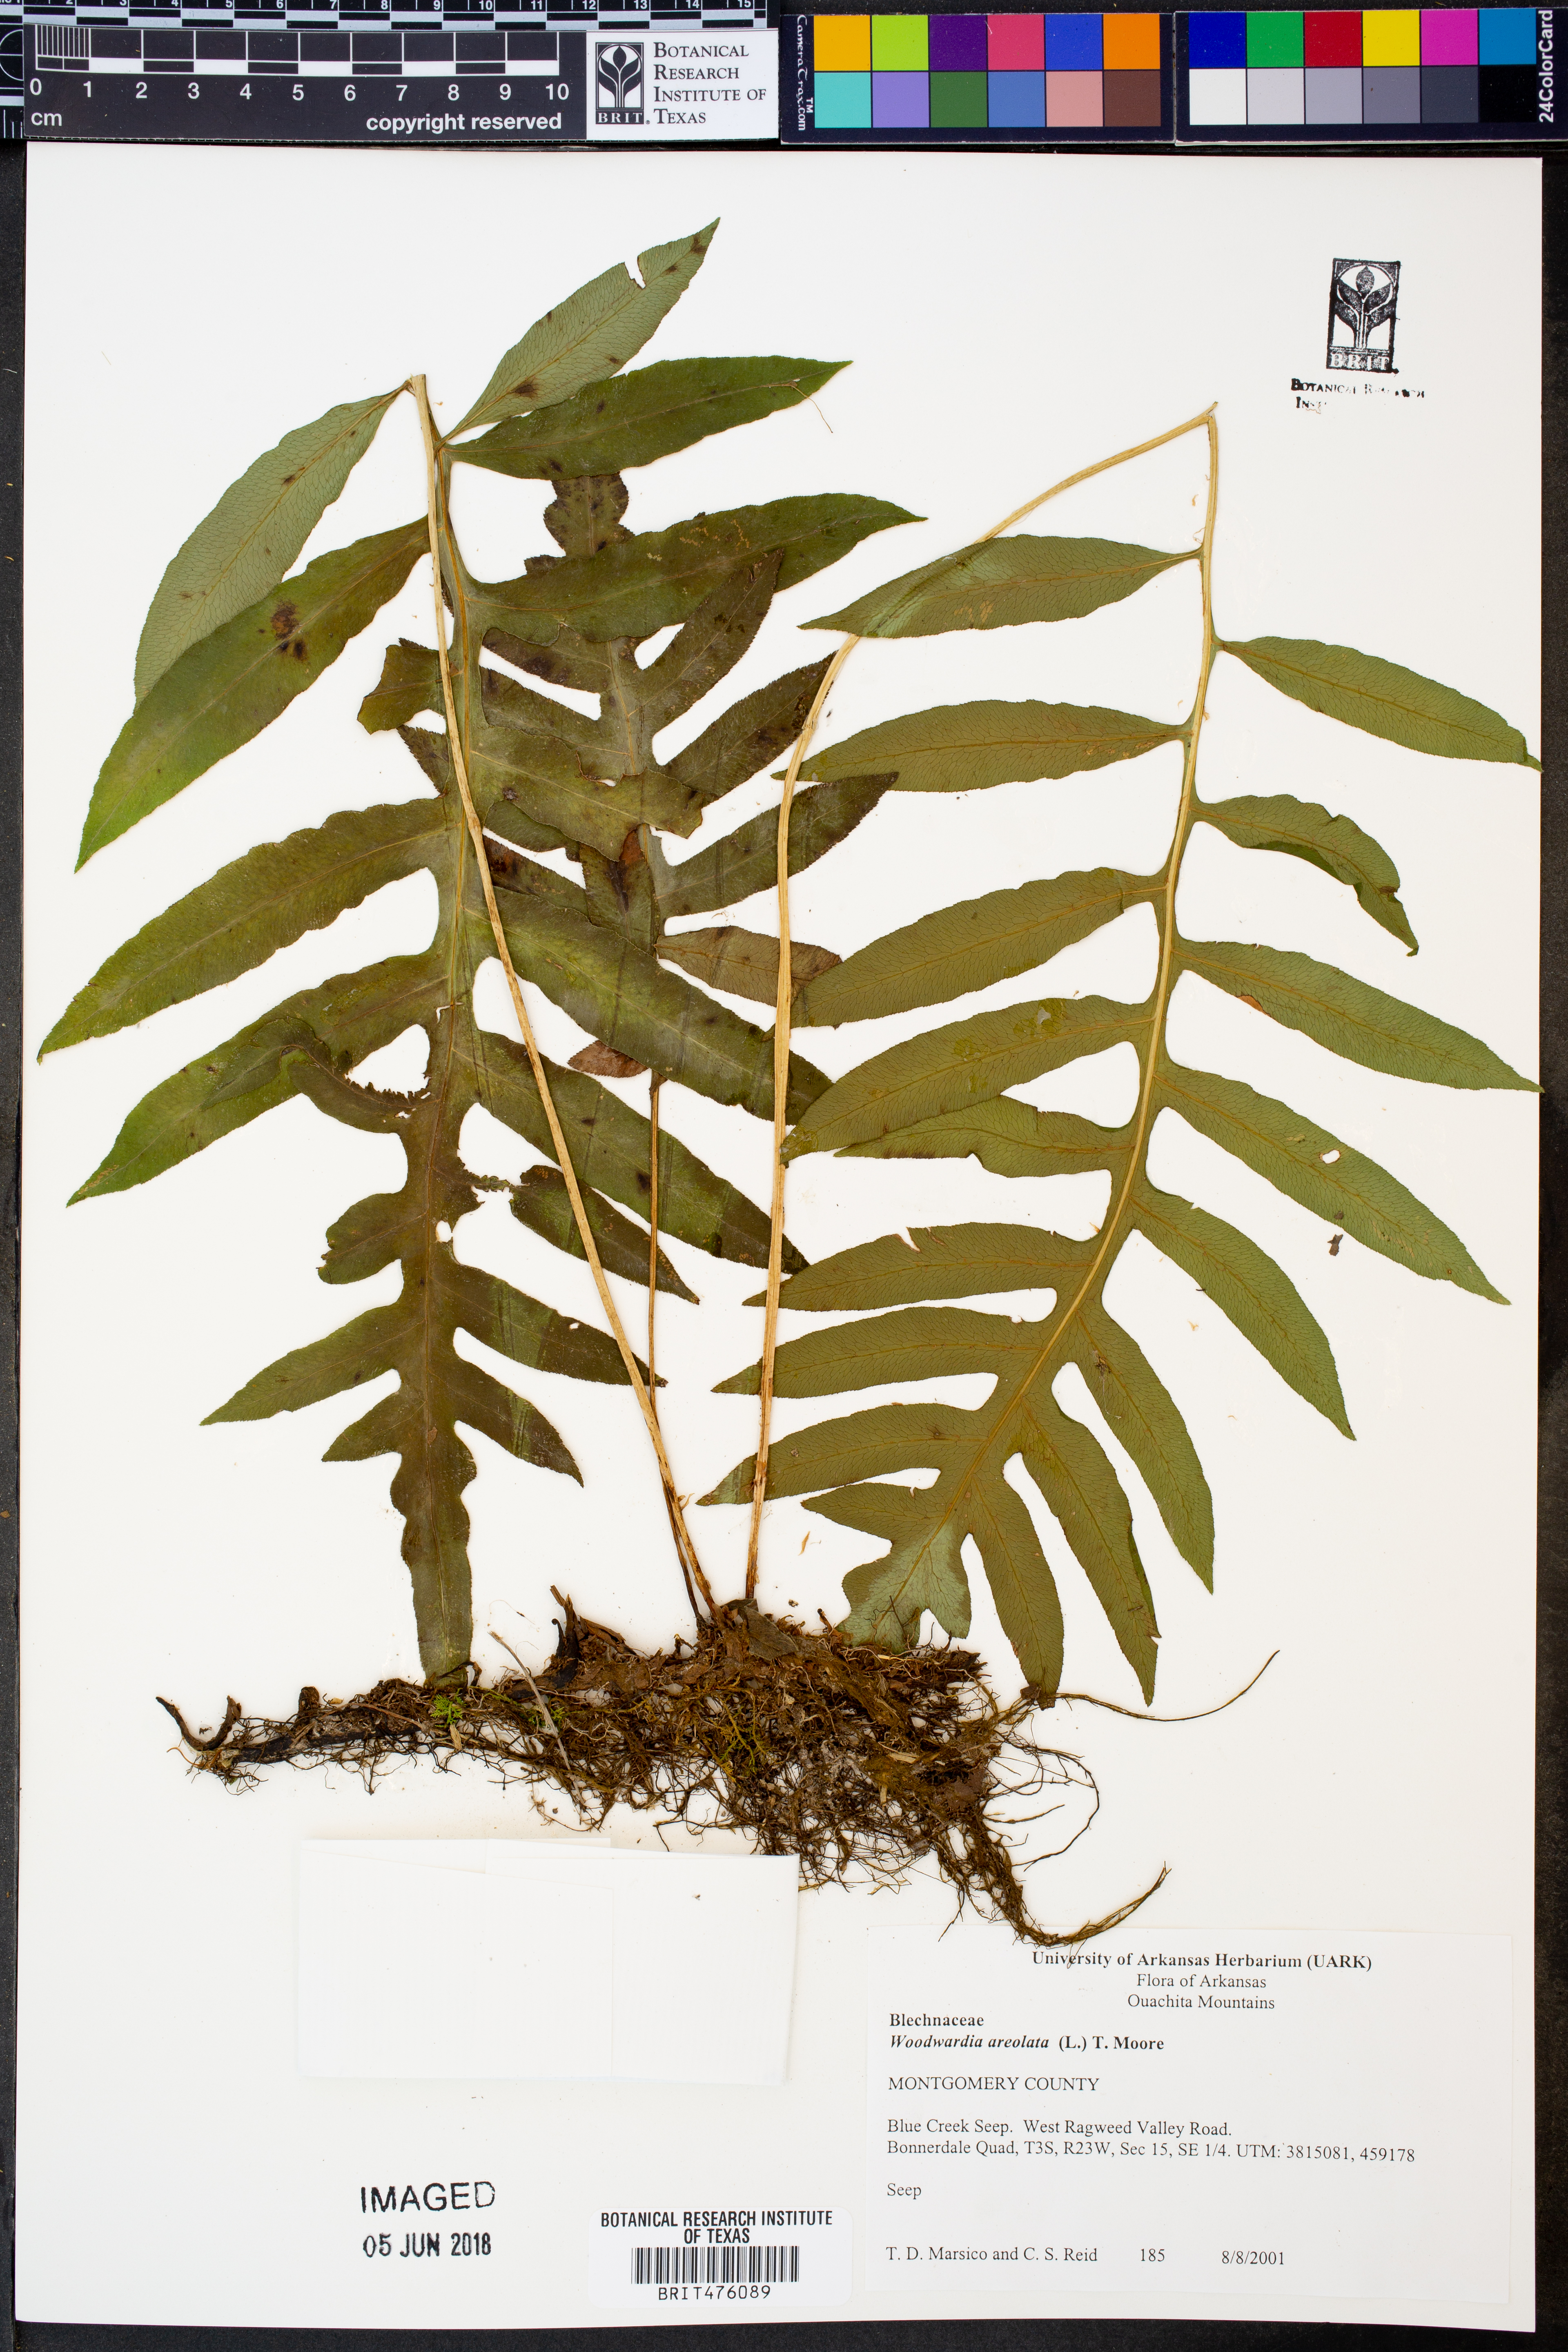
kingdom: Plantae
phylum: Tracheophyta
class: Polypodiopsida
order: Polypodiales
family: Blechnaceae
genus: Lorinseria
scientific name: Lorinseria areolata
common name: Dwarf chain fern
